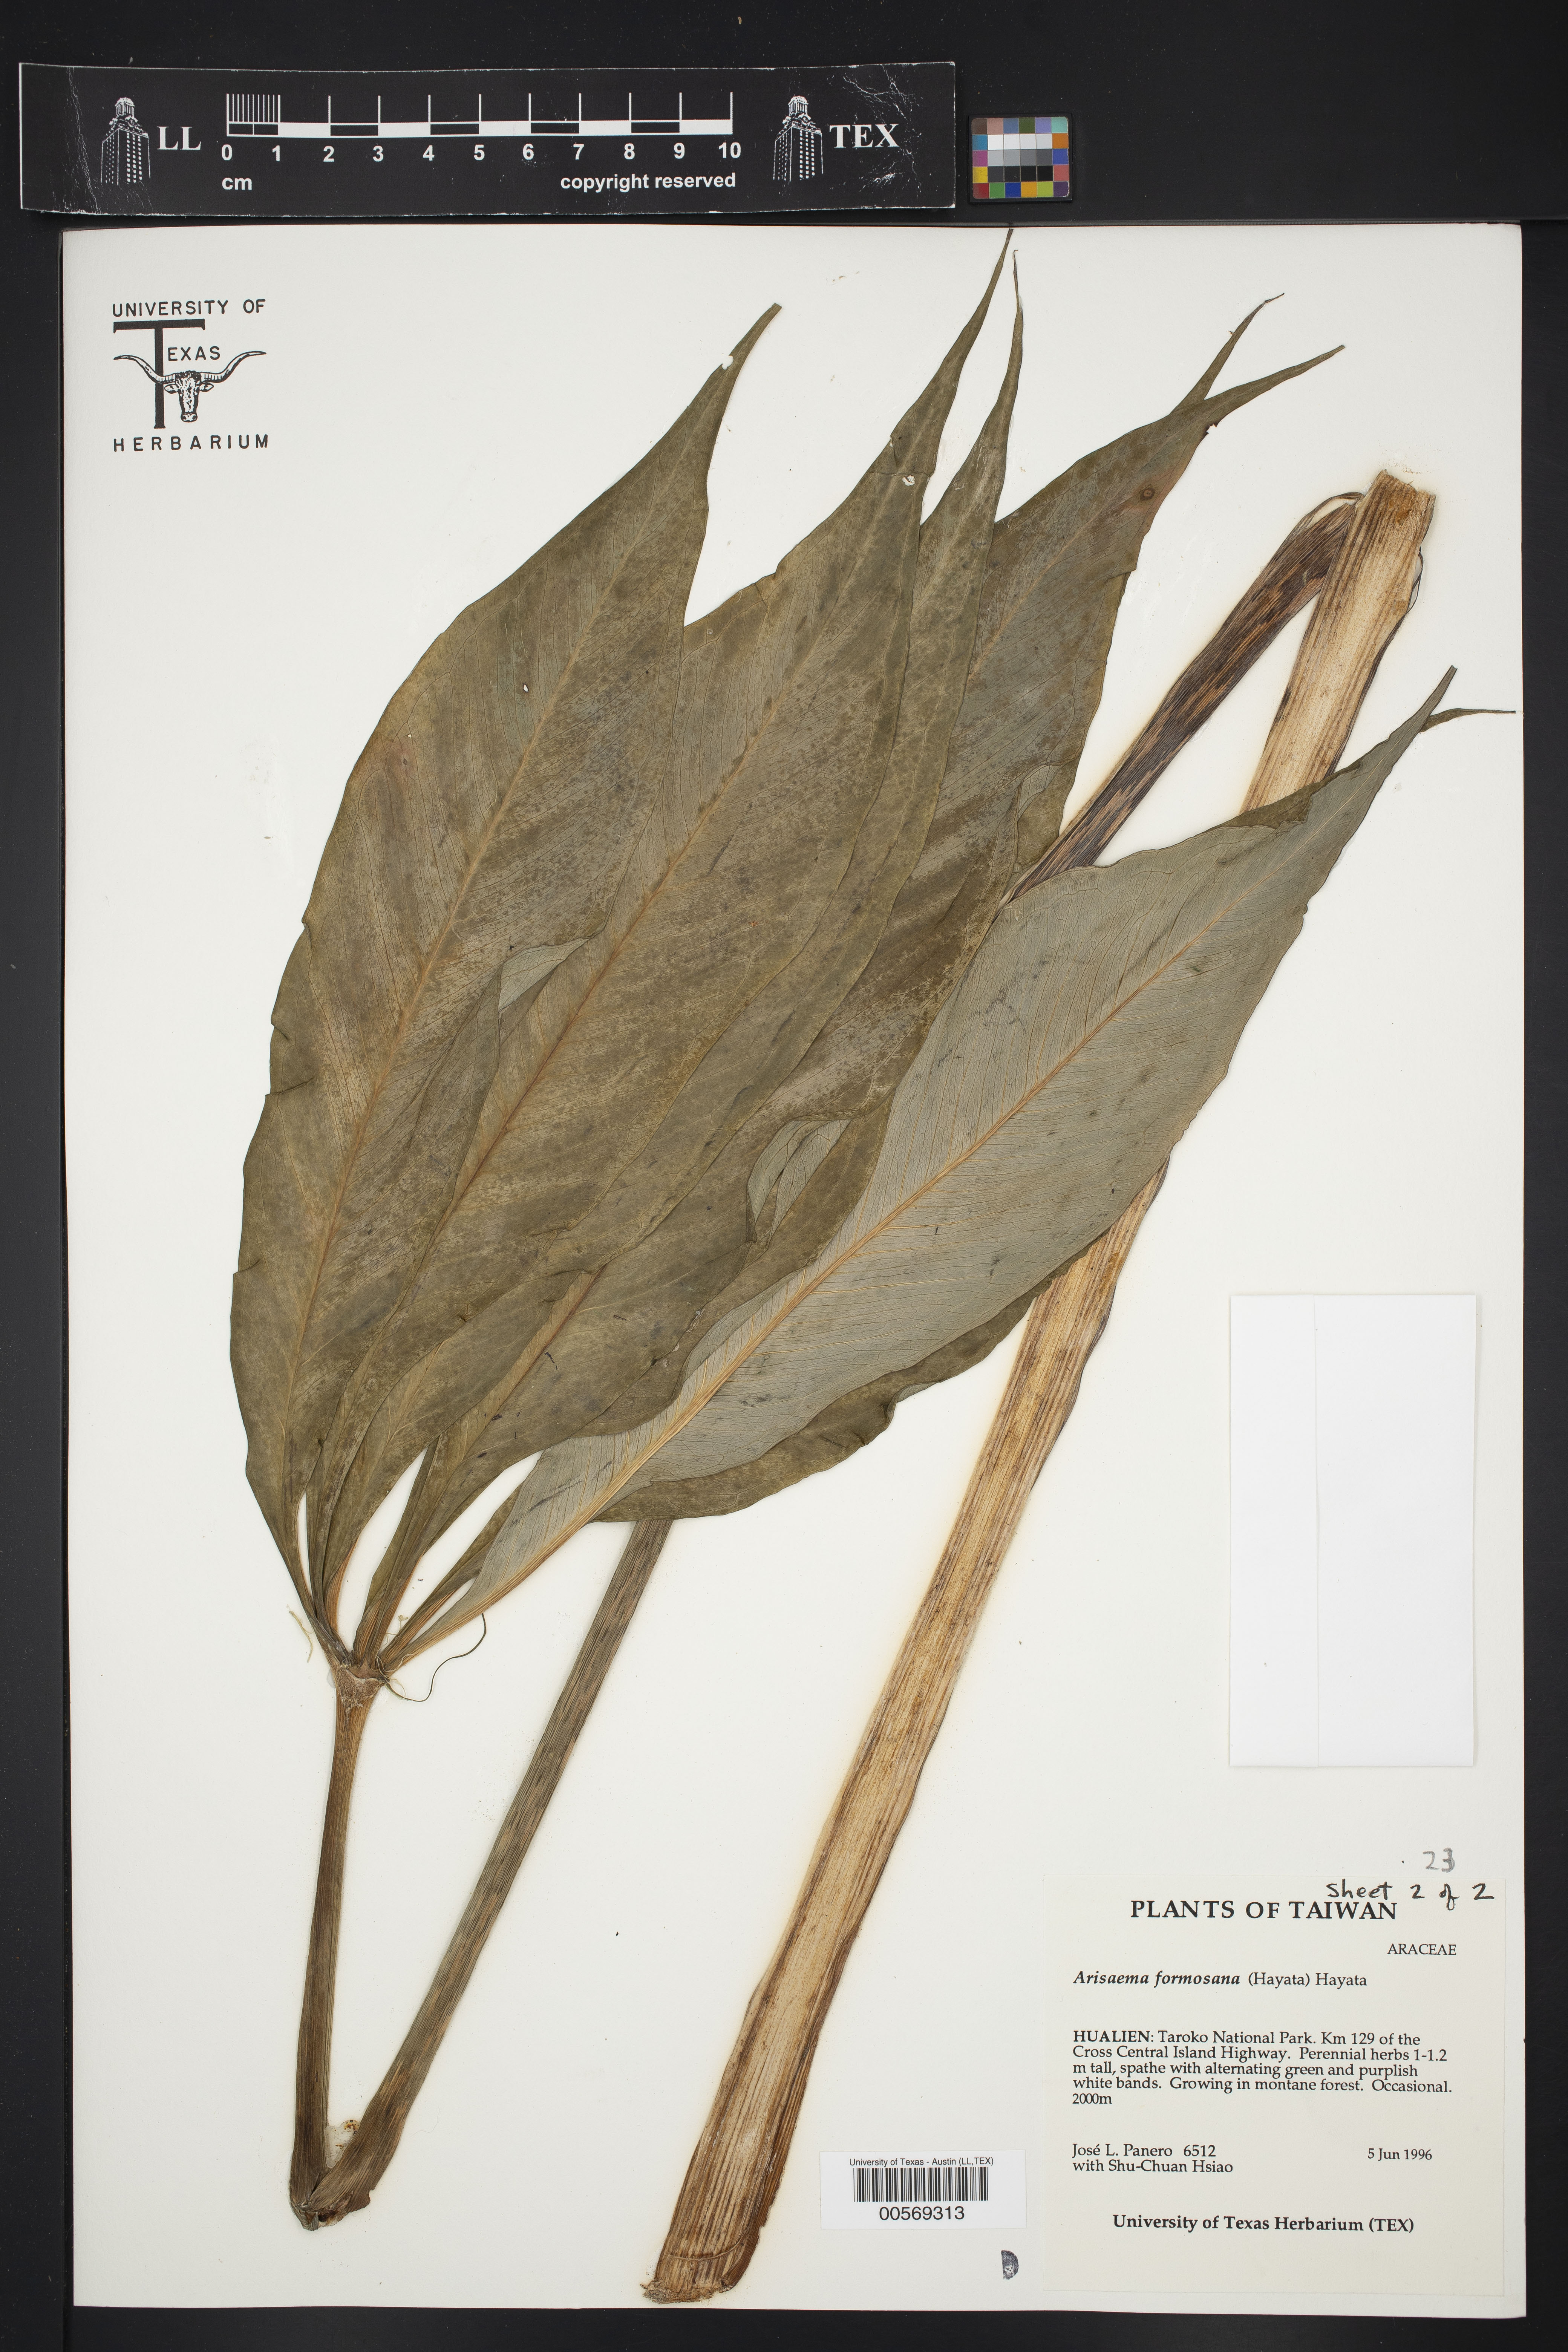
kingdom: Plantae
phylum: Tracheophyta
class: Liliopsida
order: Alismatales
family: Araceae
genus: Arisaema
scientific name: Arisaema formosanum
